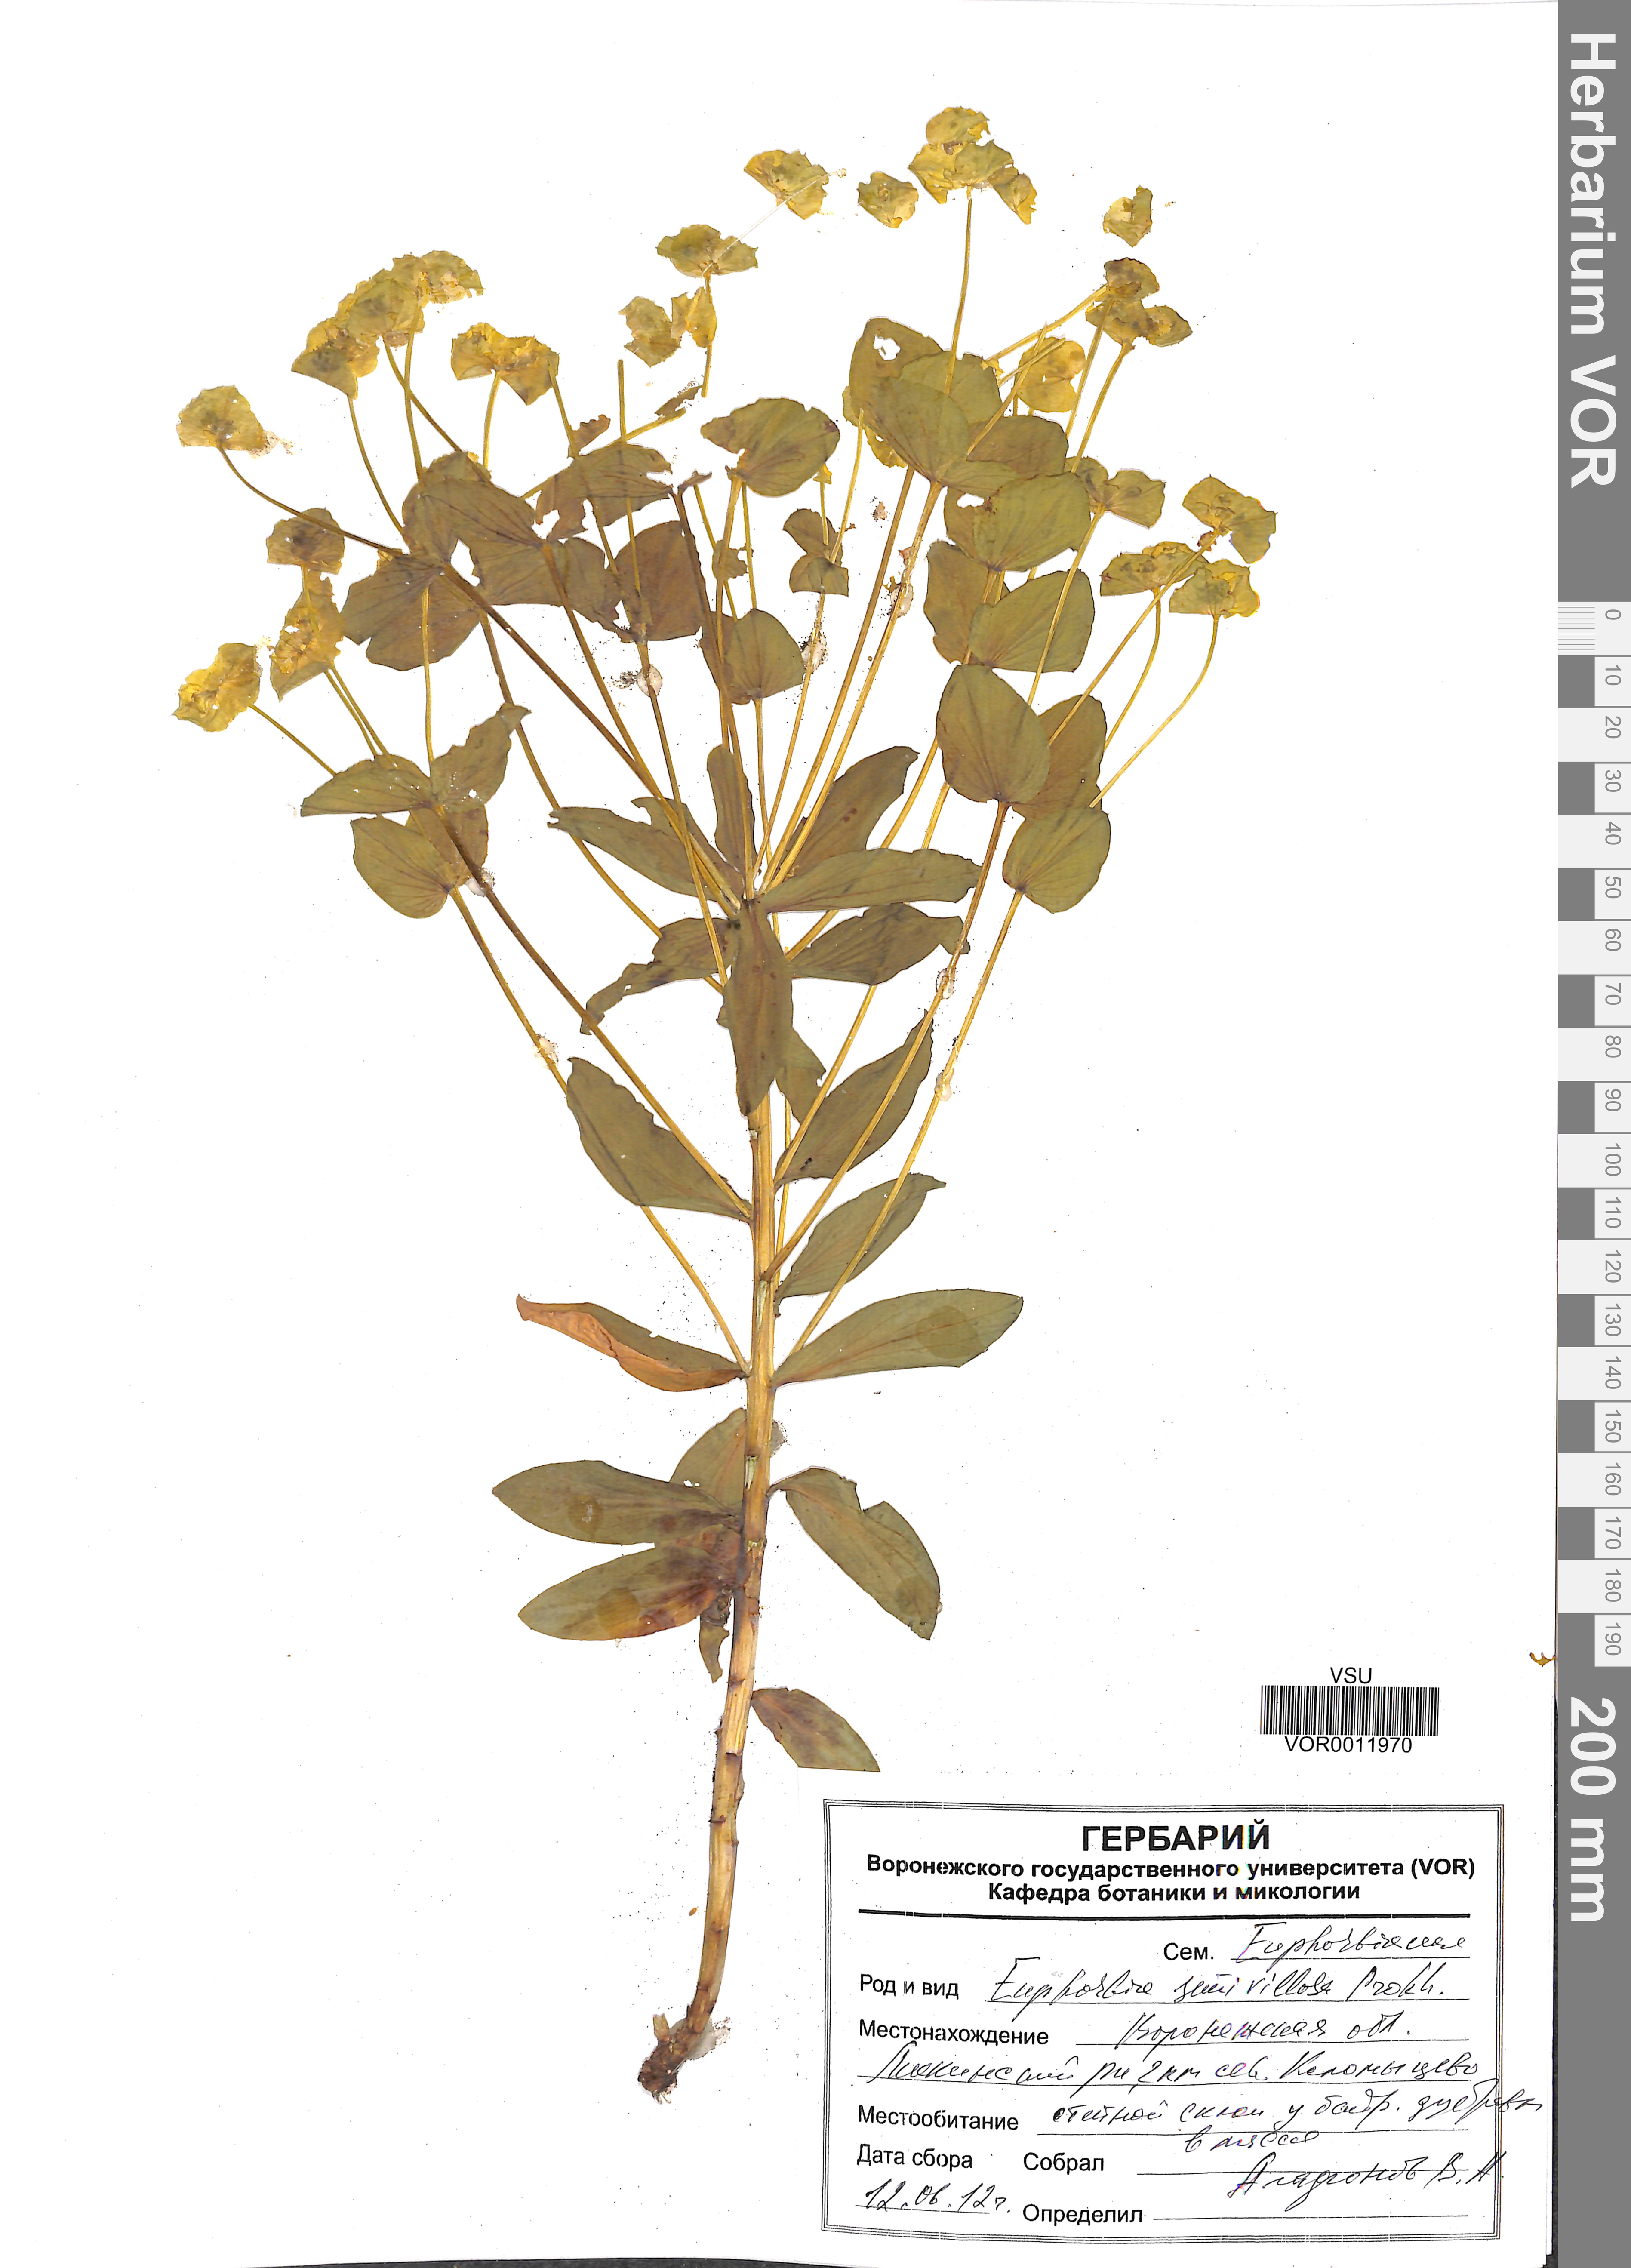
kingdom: Plantae
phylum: Tracheophyta
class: Magnoliopsida
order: Malpighiales
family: Euphorbiaceae
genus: Euphorbia
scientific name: Euphorbia semivillosa
